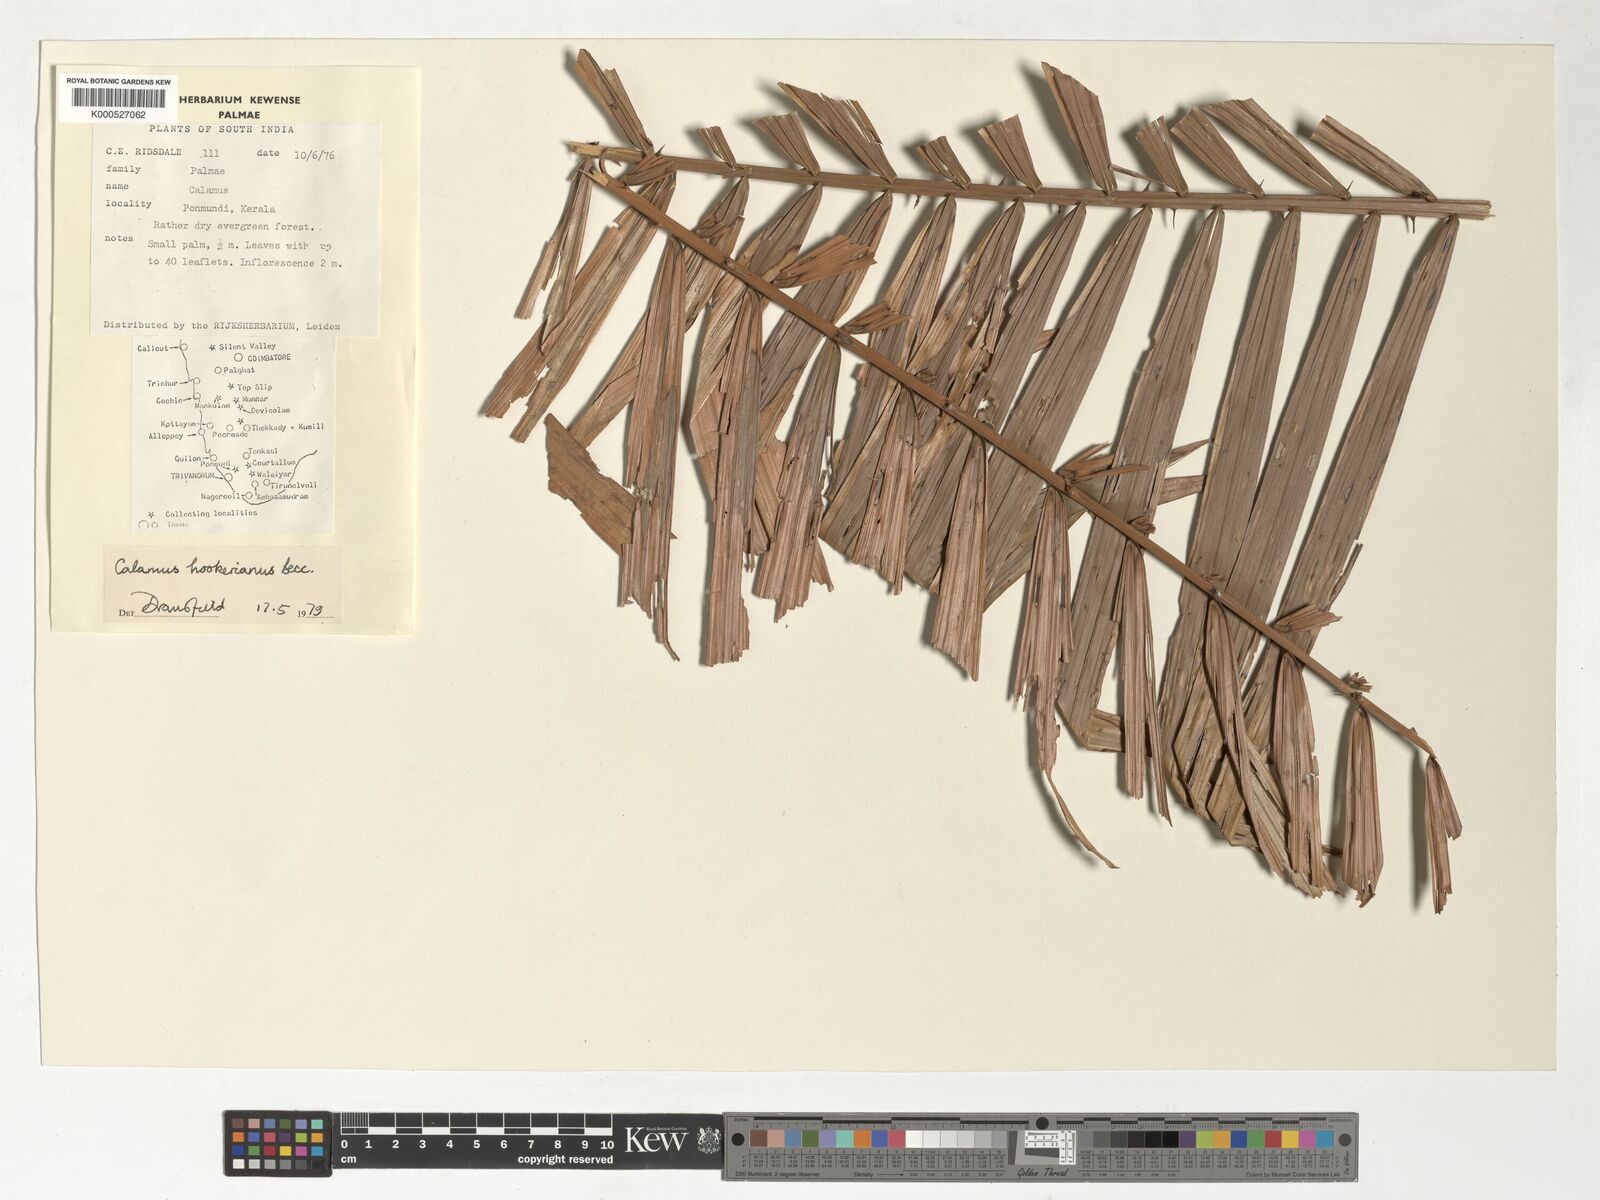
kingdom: Plantae
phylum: Tracheophyta
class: Liliopsida
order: Arecales
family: Arecaceae
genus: Calamus
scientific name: Calamus hookerianus
